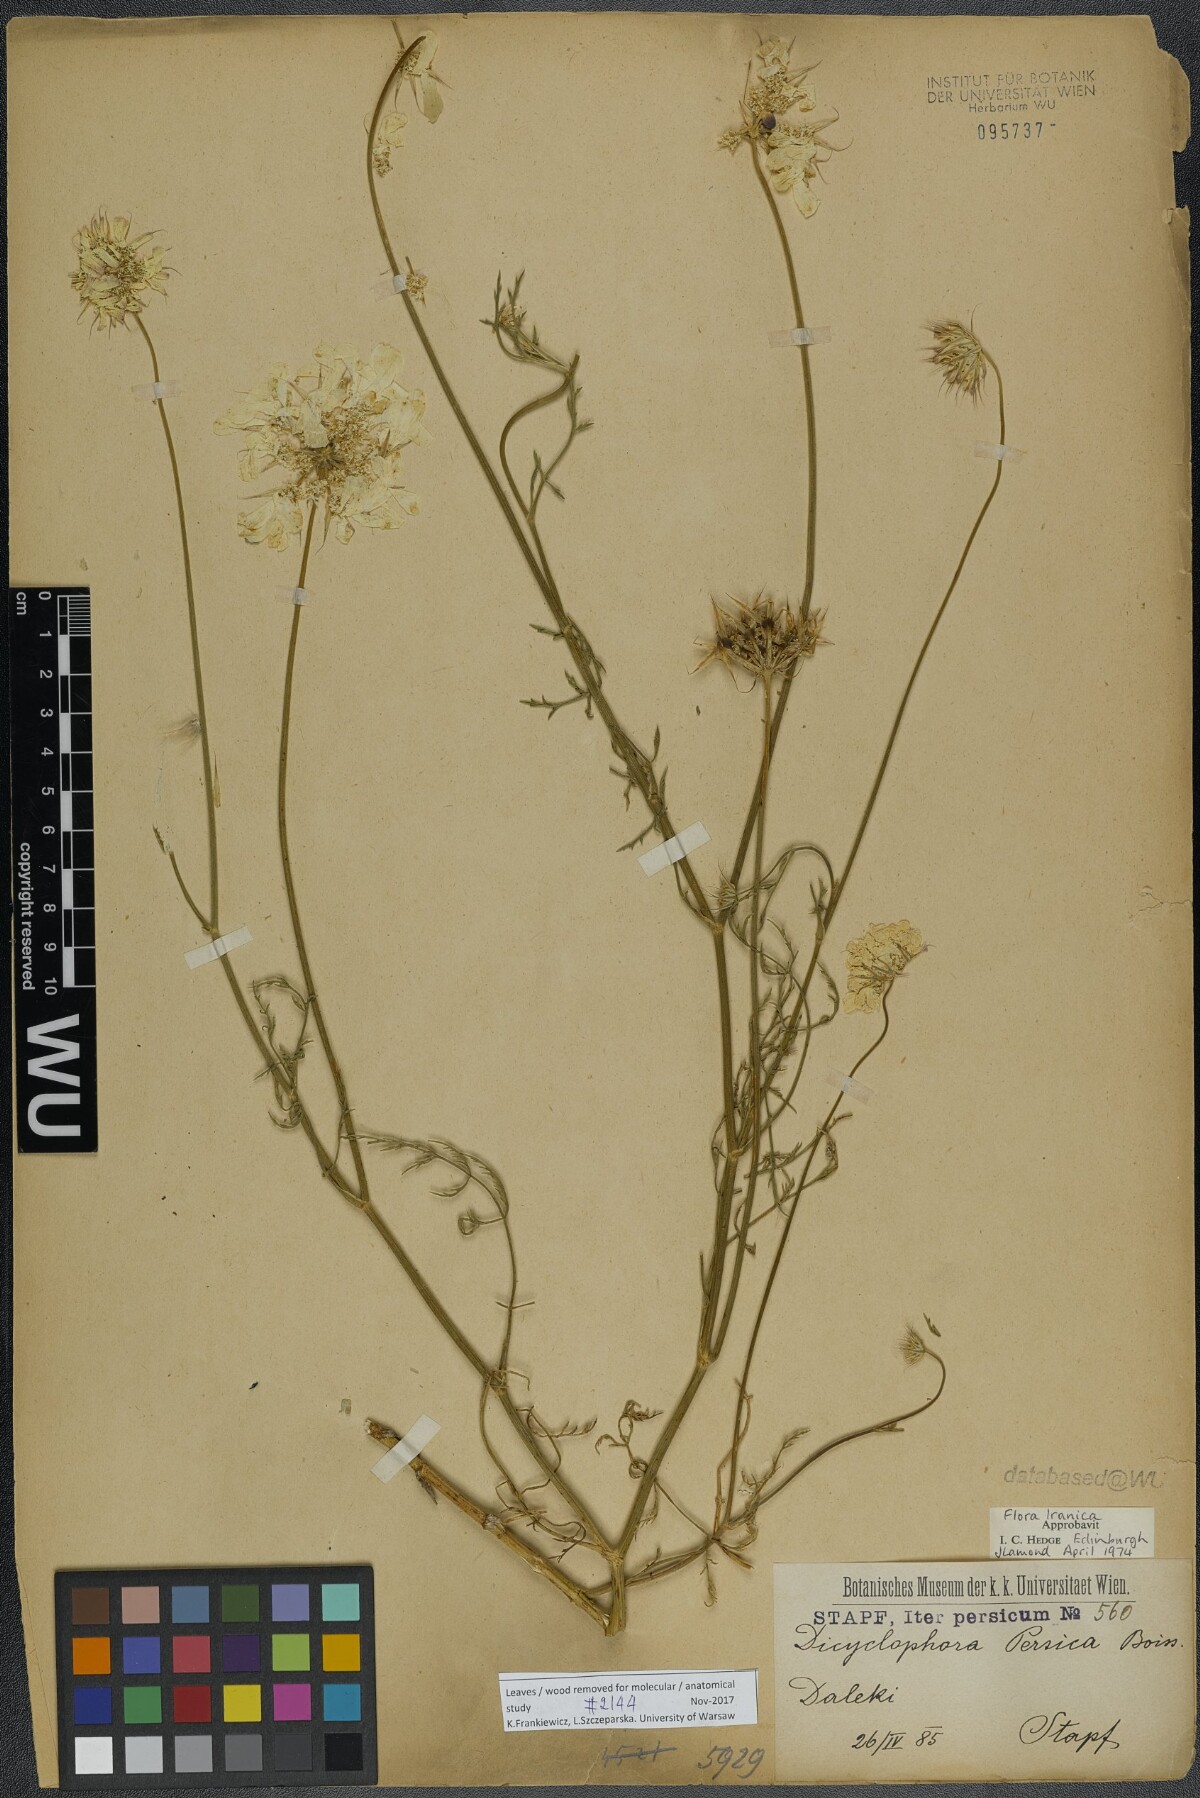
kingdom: Plantae
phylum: Tracheophyta
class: Magnoliopsida
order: Apiales
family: Apiaceae
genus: Dicyclophora
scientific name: Dicyclophora persica
